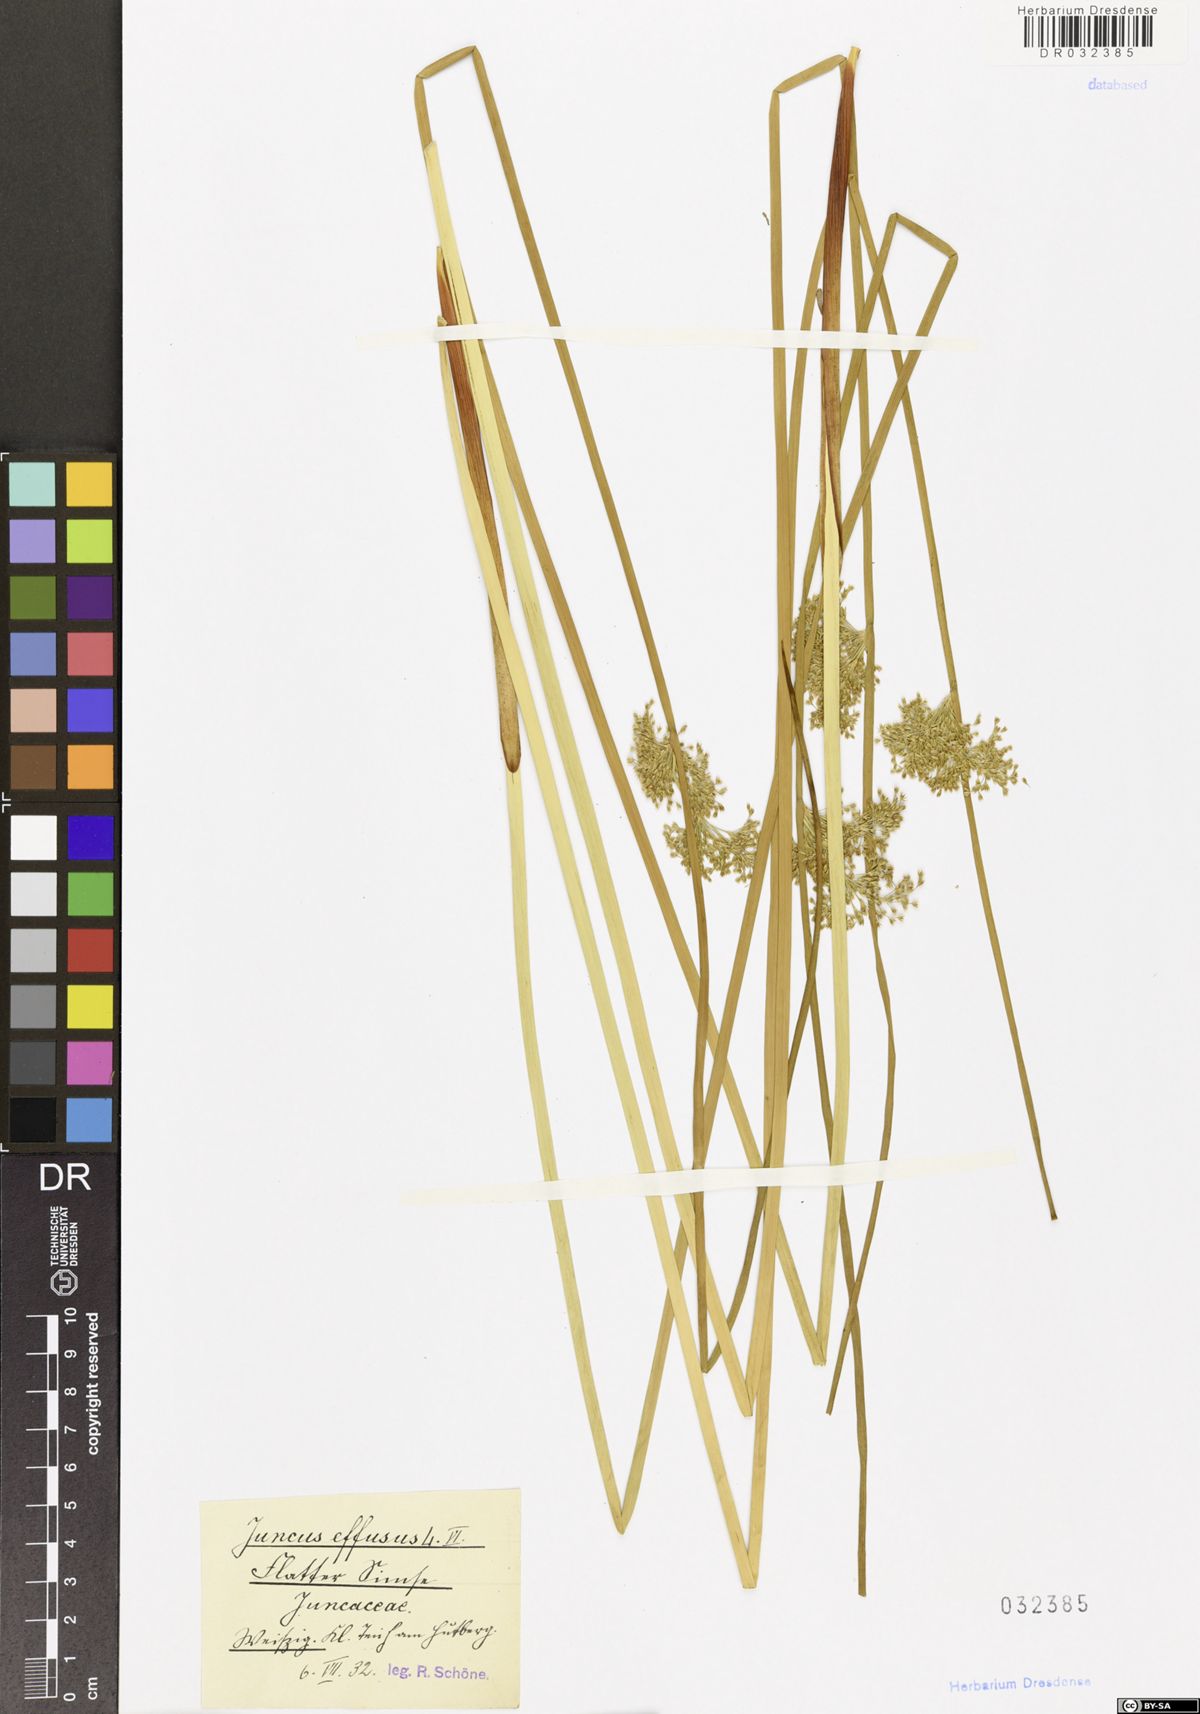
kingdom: Plantae
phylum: Tracheophyta
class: Liliopsida
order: Poales
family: Juncaceae
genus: Juncus
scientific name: Juncus effusus
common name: Soft rush
